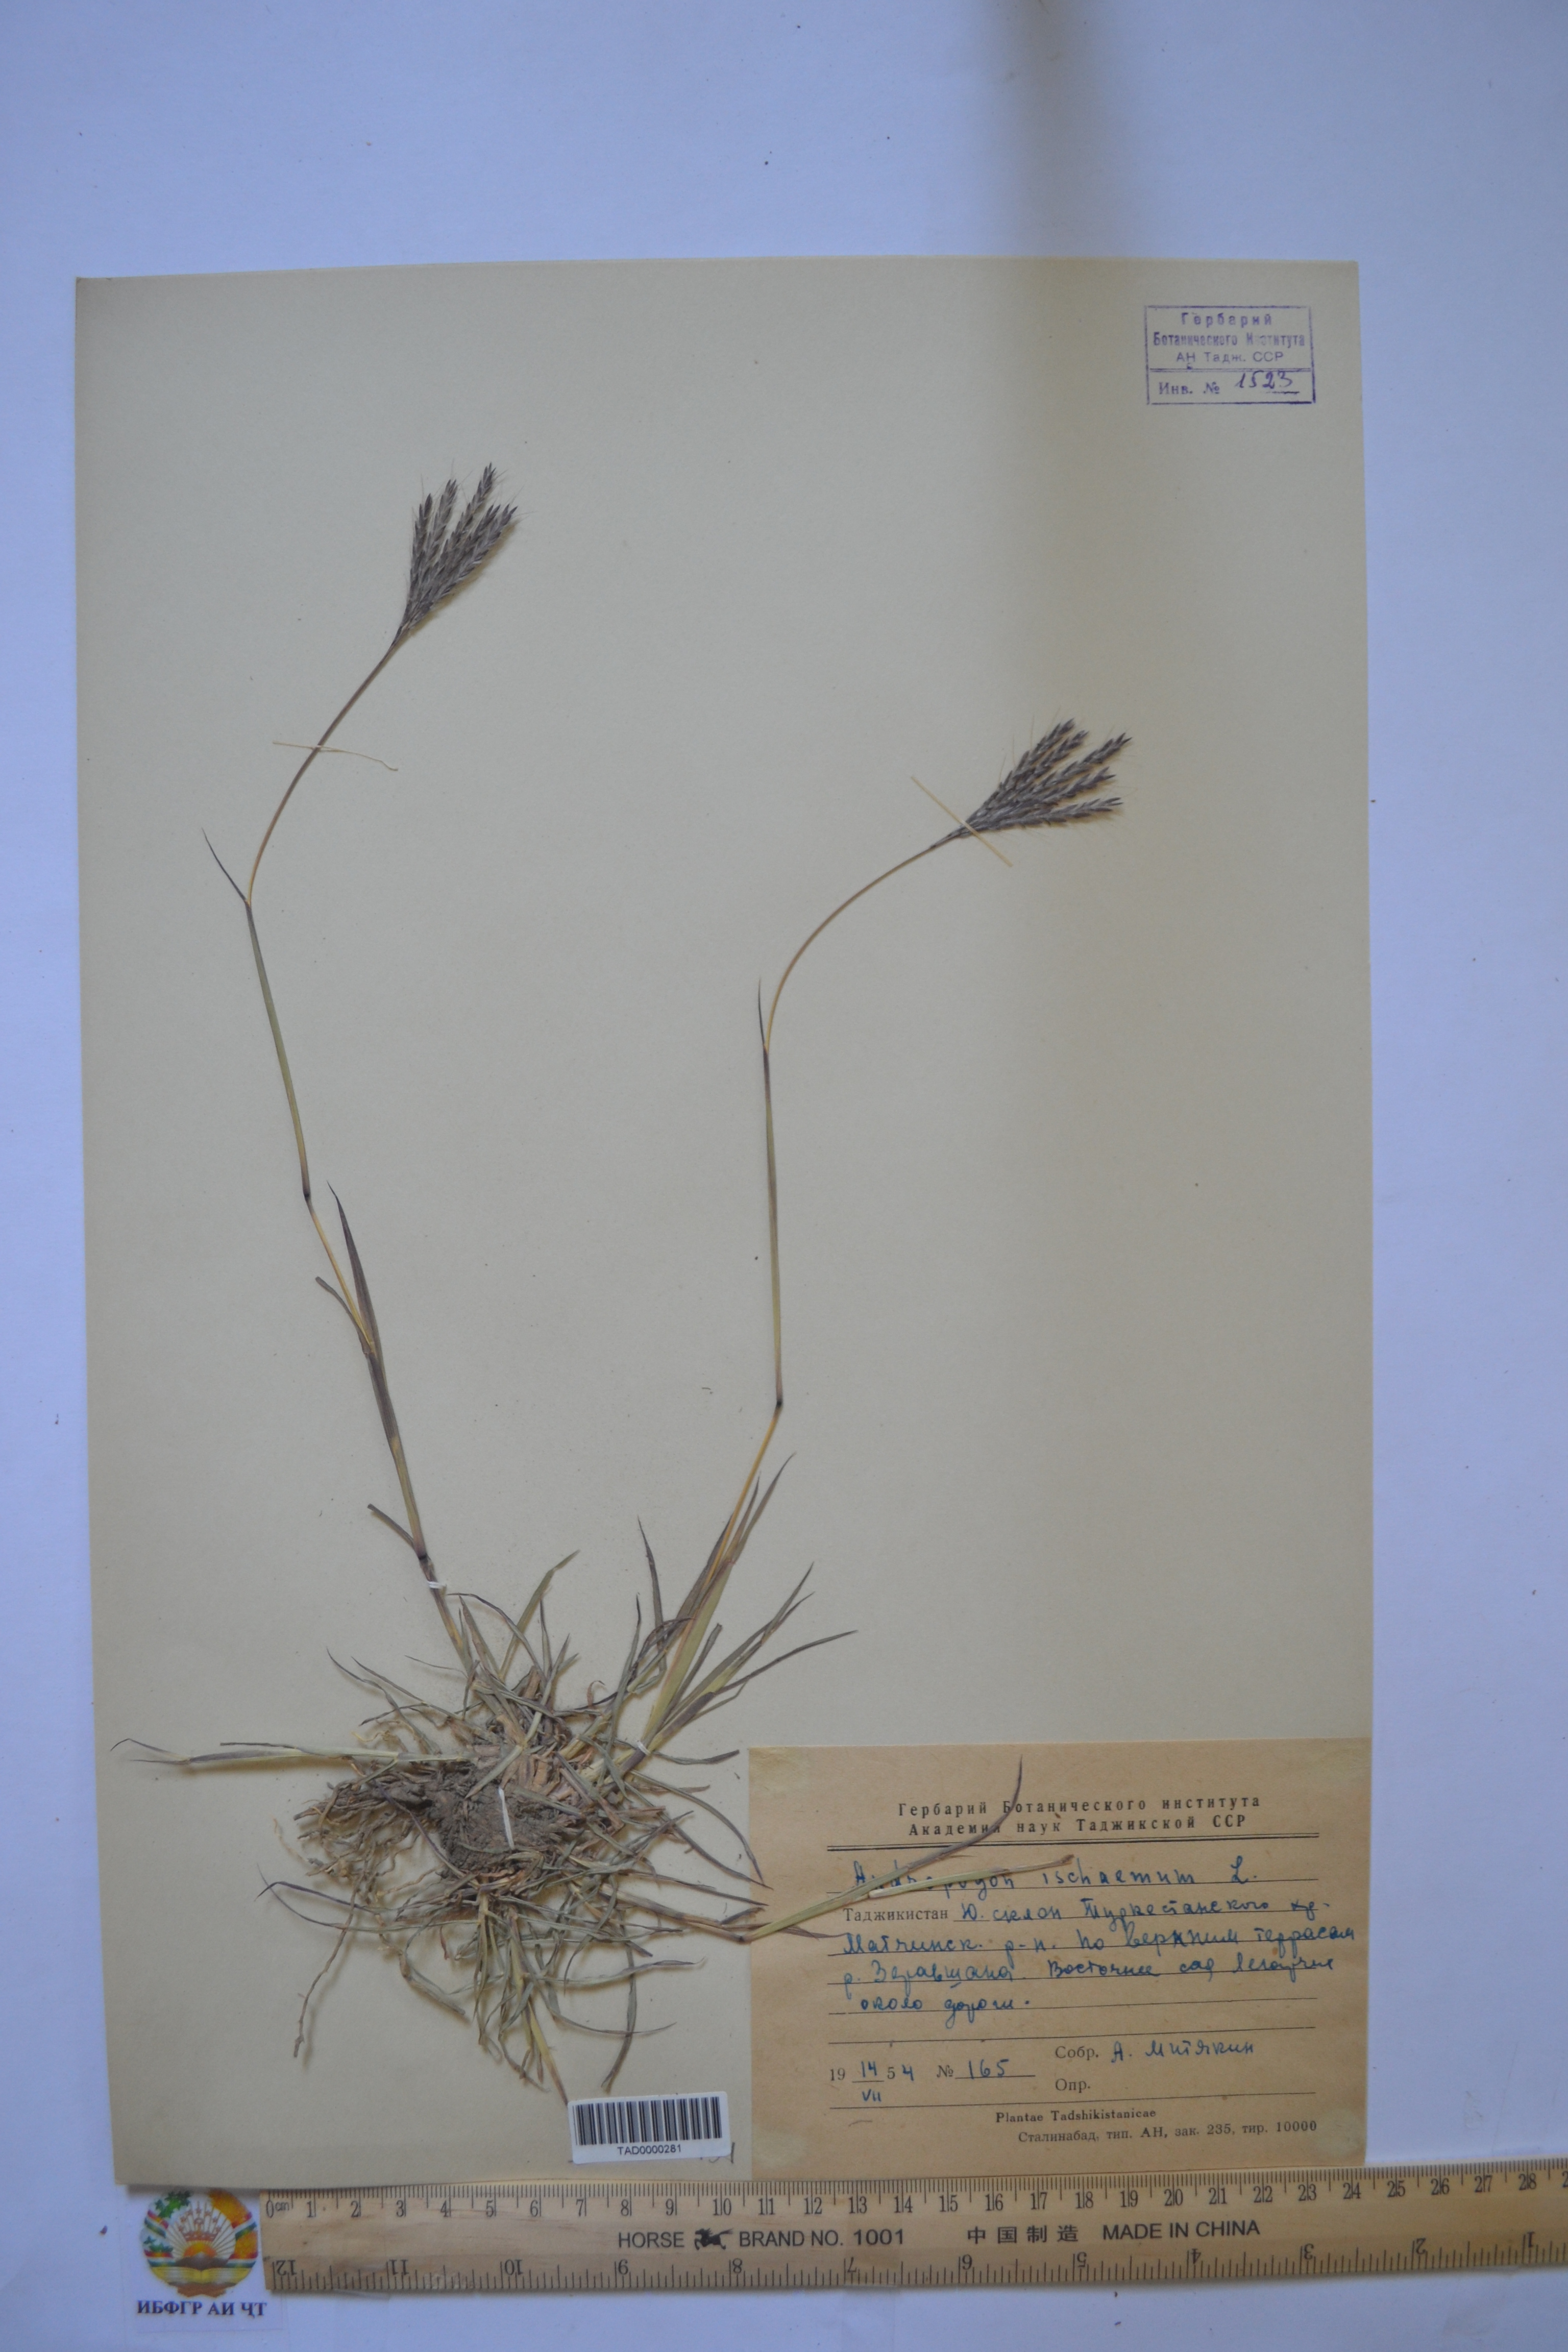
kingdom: Plantae
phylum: Tracheophyta
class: Liliopsida
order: Poales
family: Poaceae
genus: Bothriochloa
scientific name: Bothriochloa ischaemum
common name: Yellow bluestem
